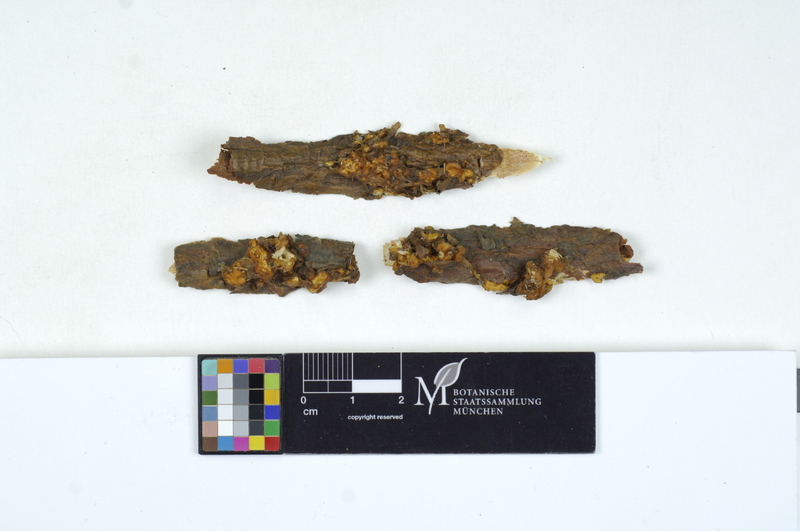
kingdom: Fungi
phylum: Basidiomycota
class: Tremellomycetes
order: Tremellales
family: Naemateliaceae
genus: Naematelia
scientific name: Naematelia encephala
